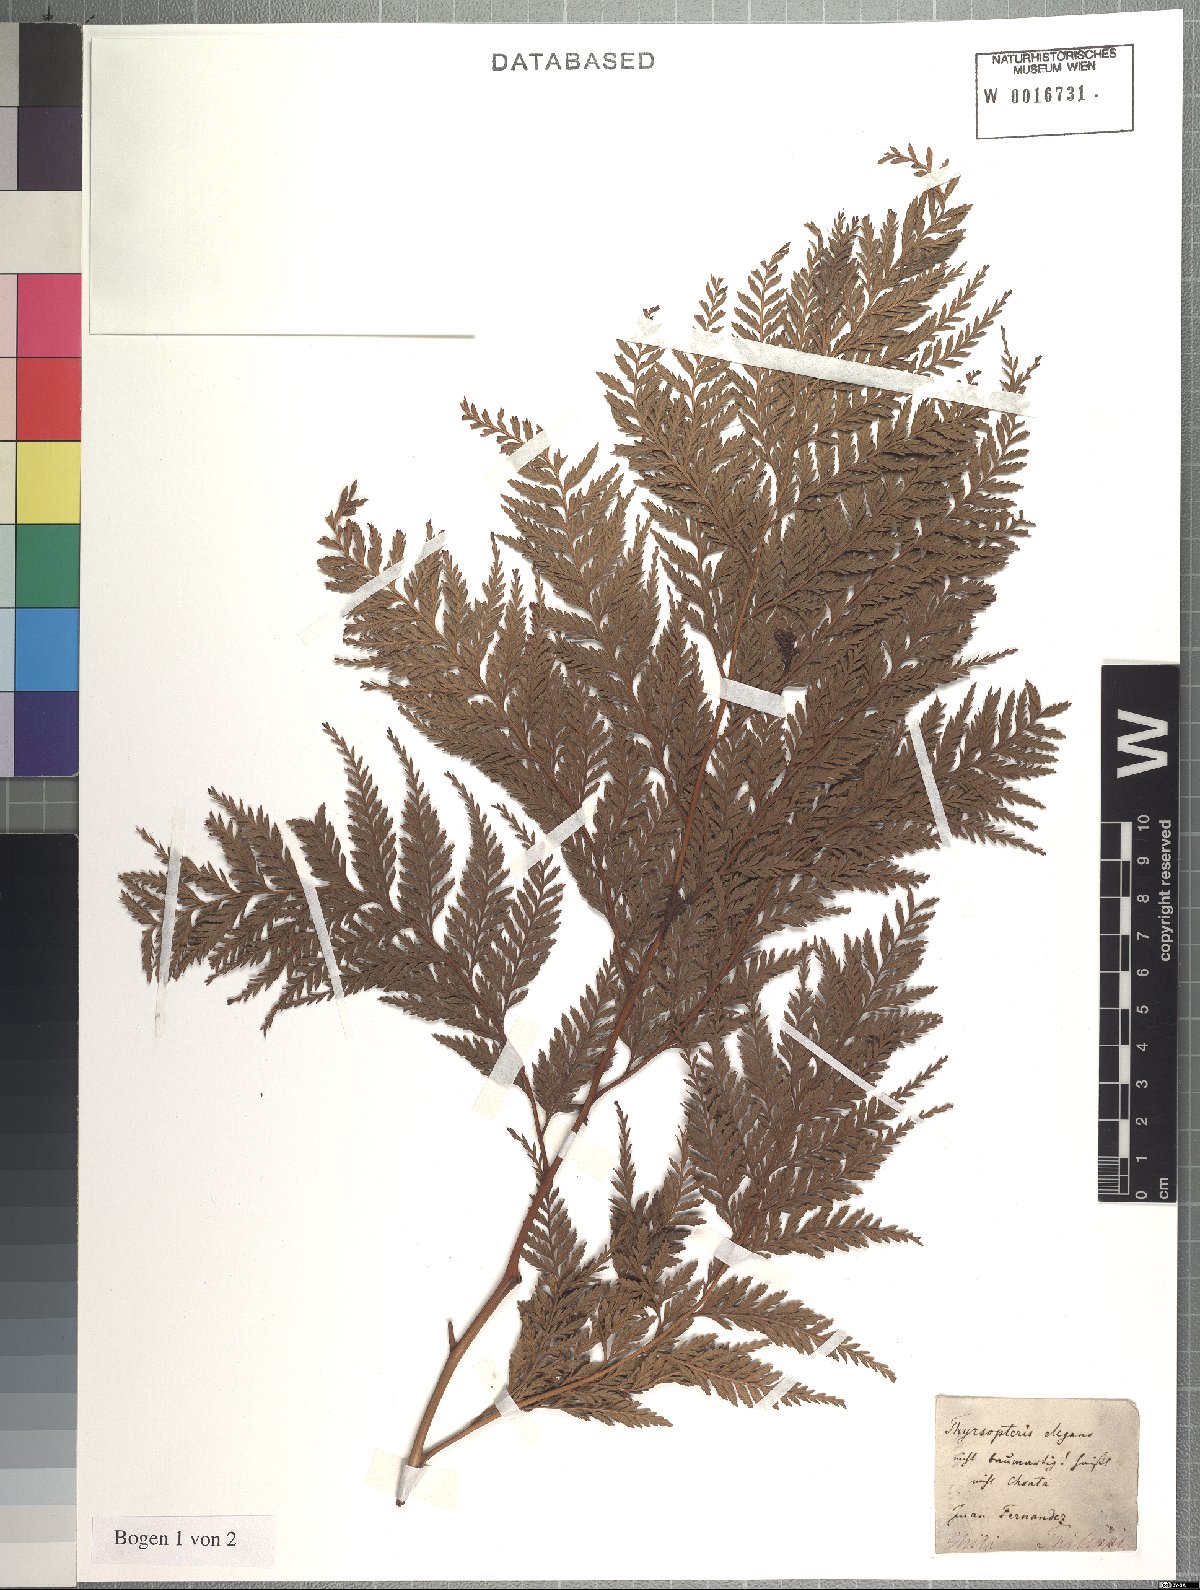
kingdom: Plantae
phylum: Tracheophyta
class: Polypodiopsida
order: Cyatheales
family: Thyrsopteridaceae
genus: Thyrsopteris
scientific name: Thyrsopteris elegans
